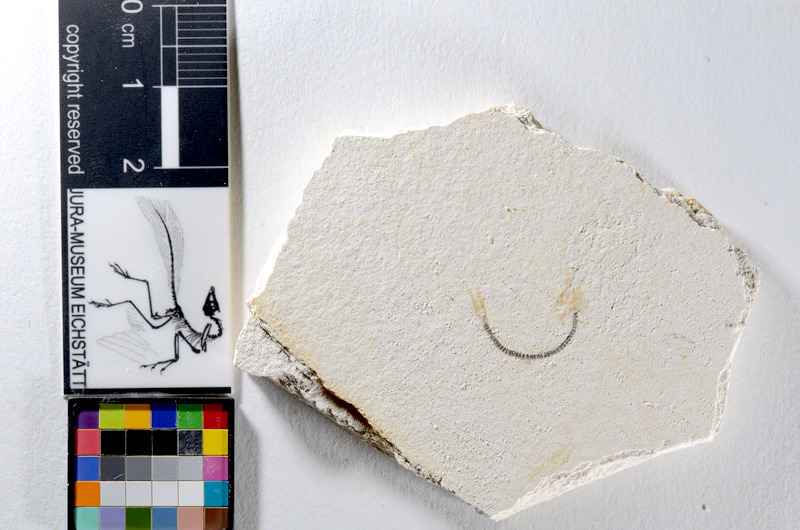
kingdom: Animalia
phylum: Chordata
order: Salmoniformes
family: Orthogonikleithridae
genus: Orthogonikleithrus
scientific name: Orthogonikleithrus hoelli
